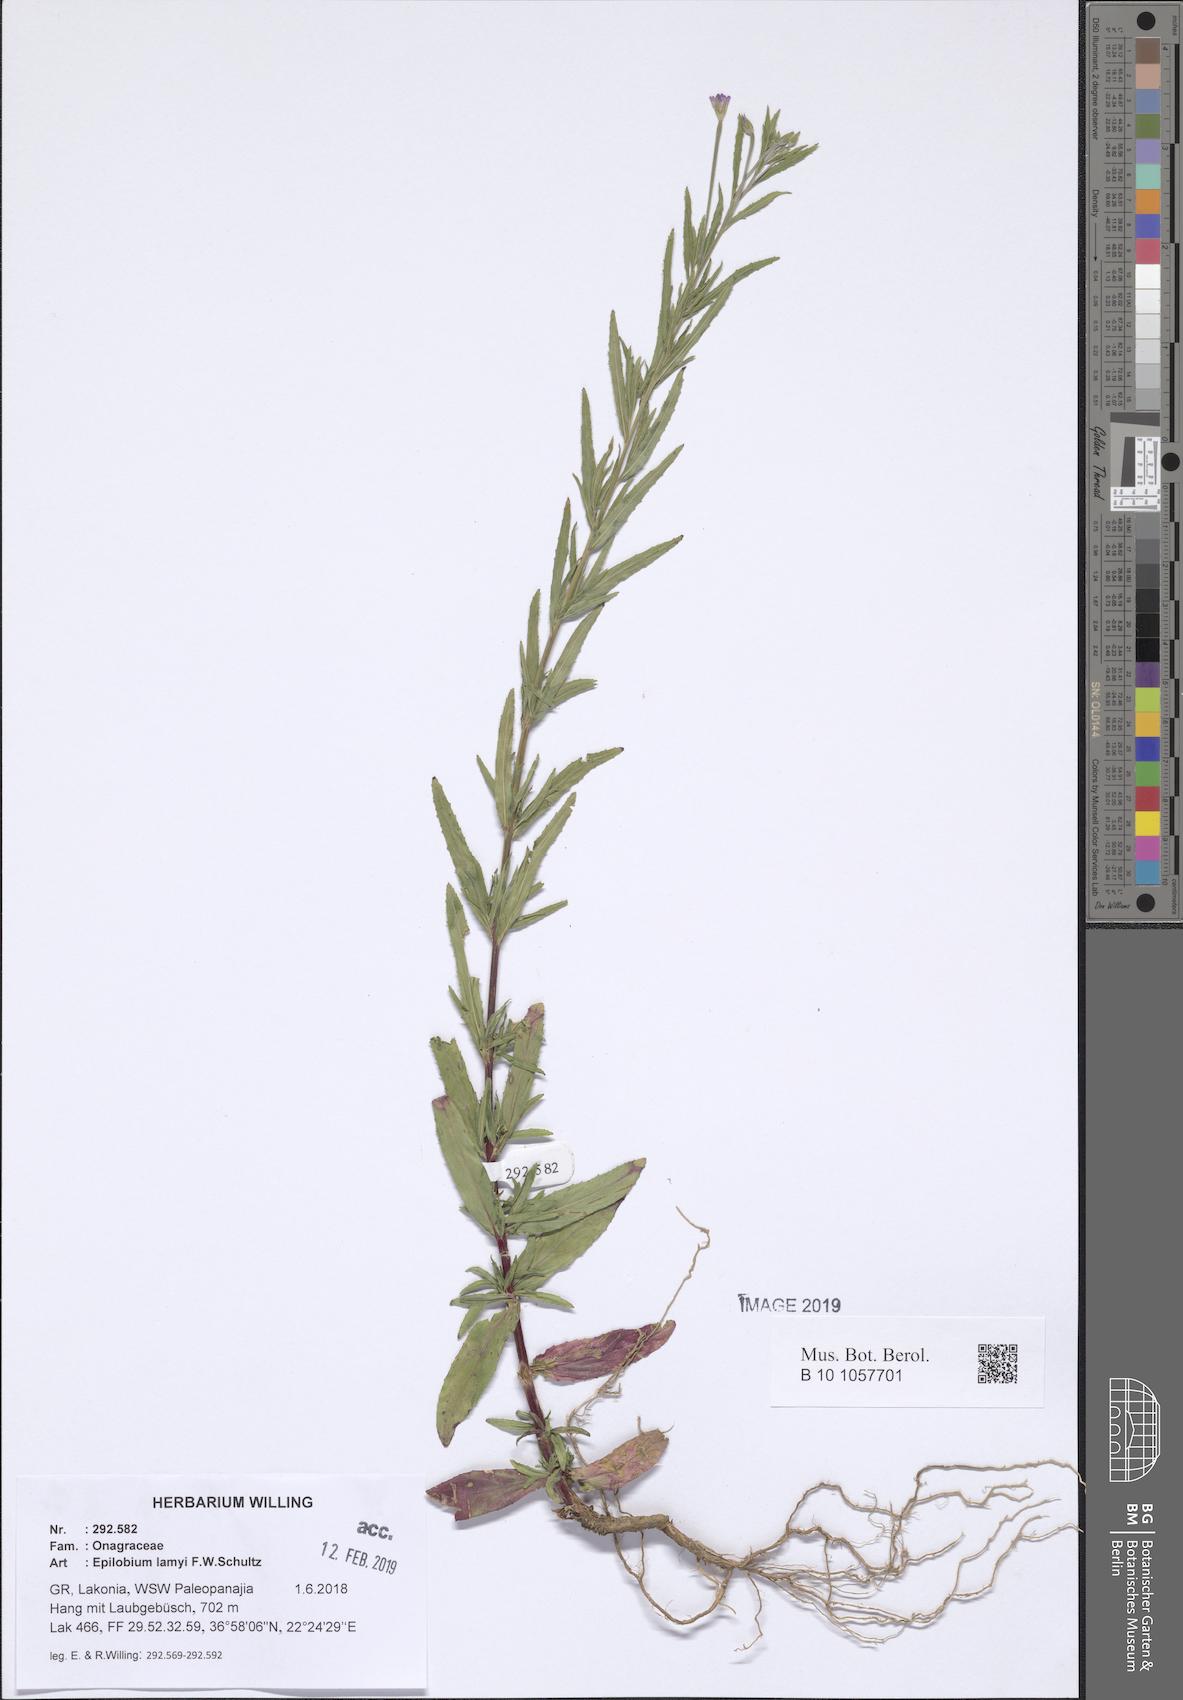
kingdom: Plantae
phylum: Tracheophyta
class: Magnoliopsida
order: Myrtales
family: Onagraceae
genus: Epilobium
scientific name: Epilobium lamyi
